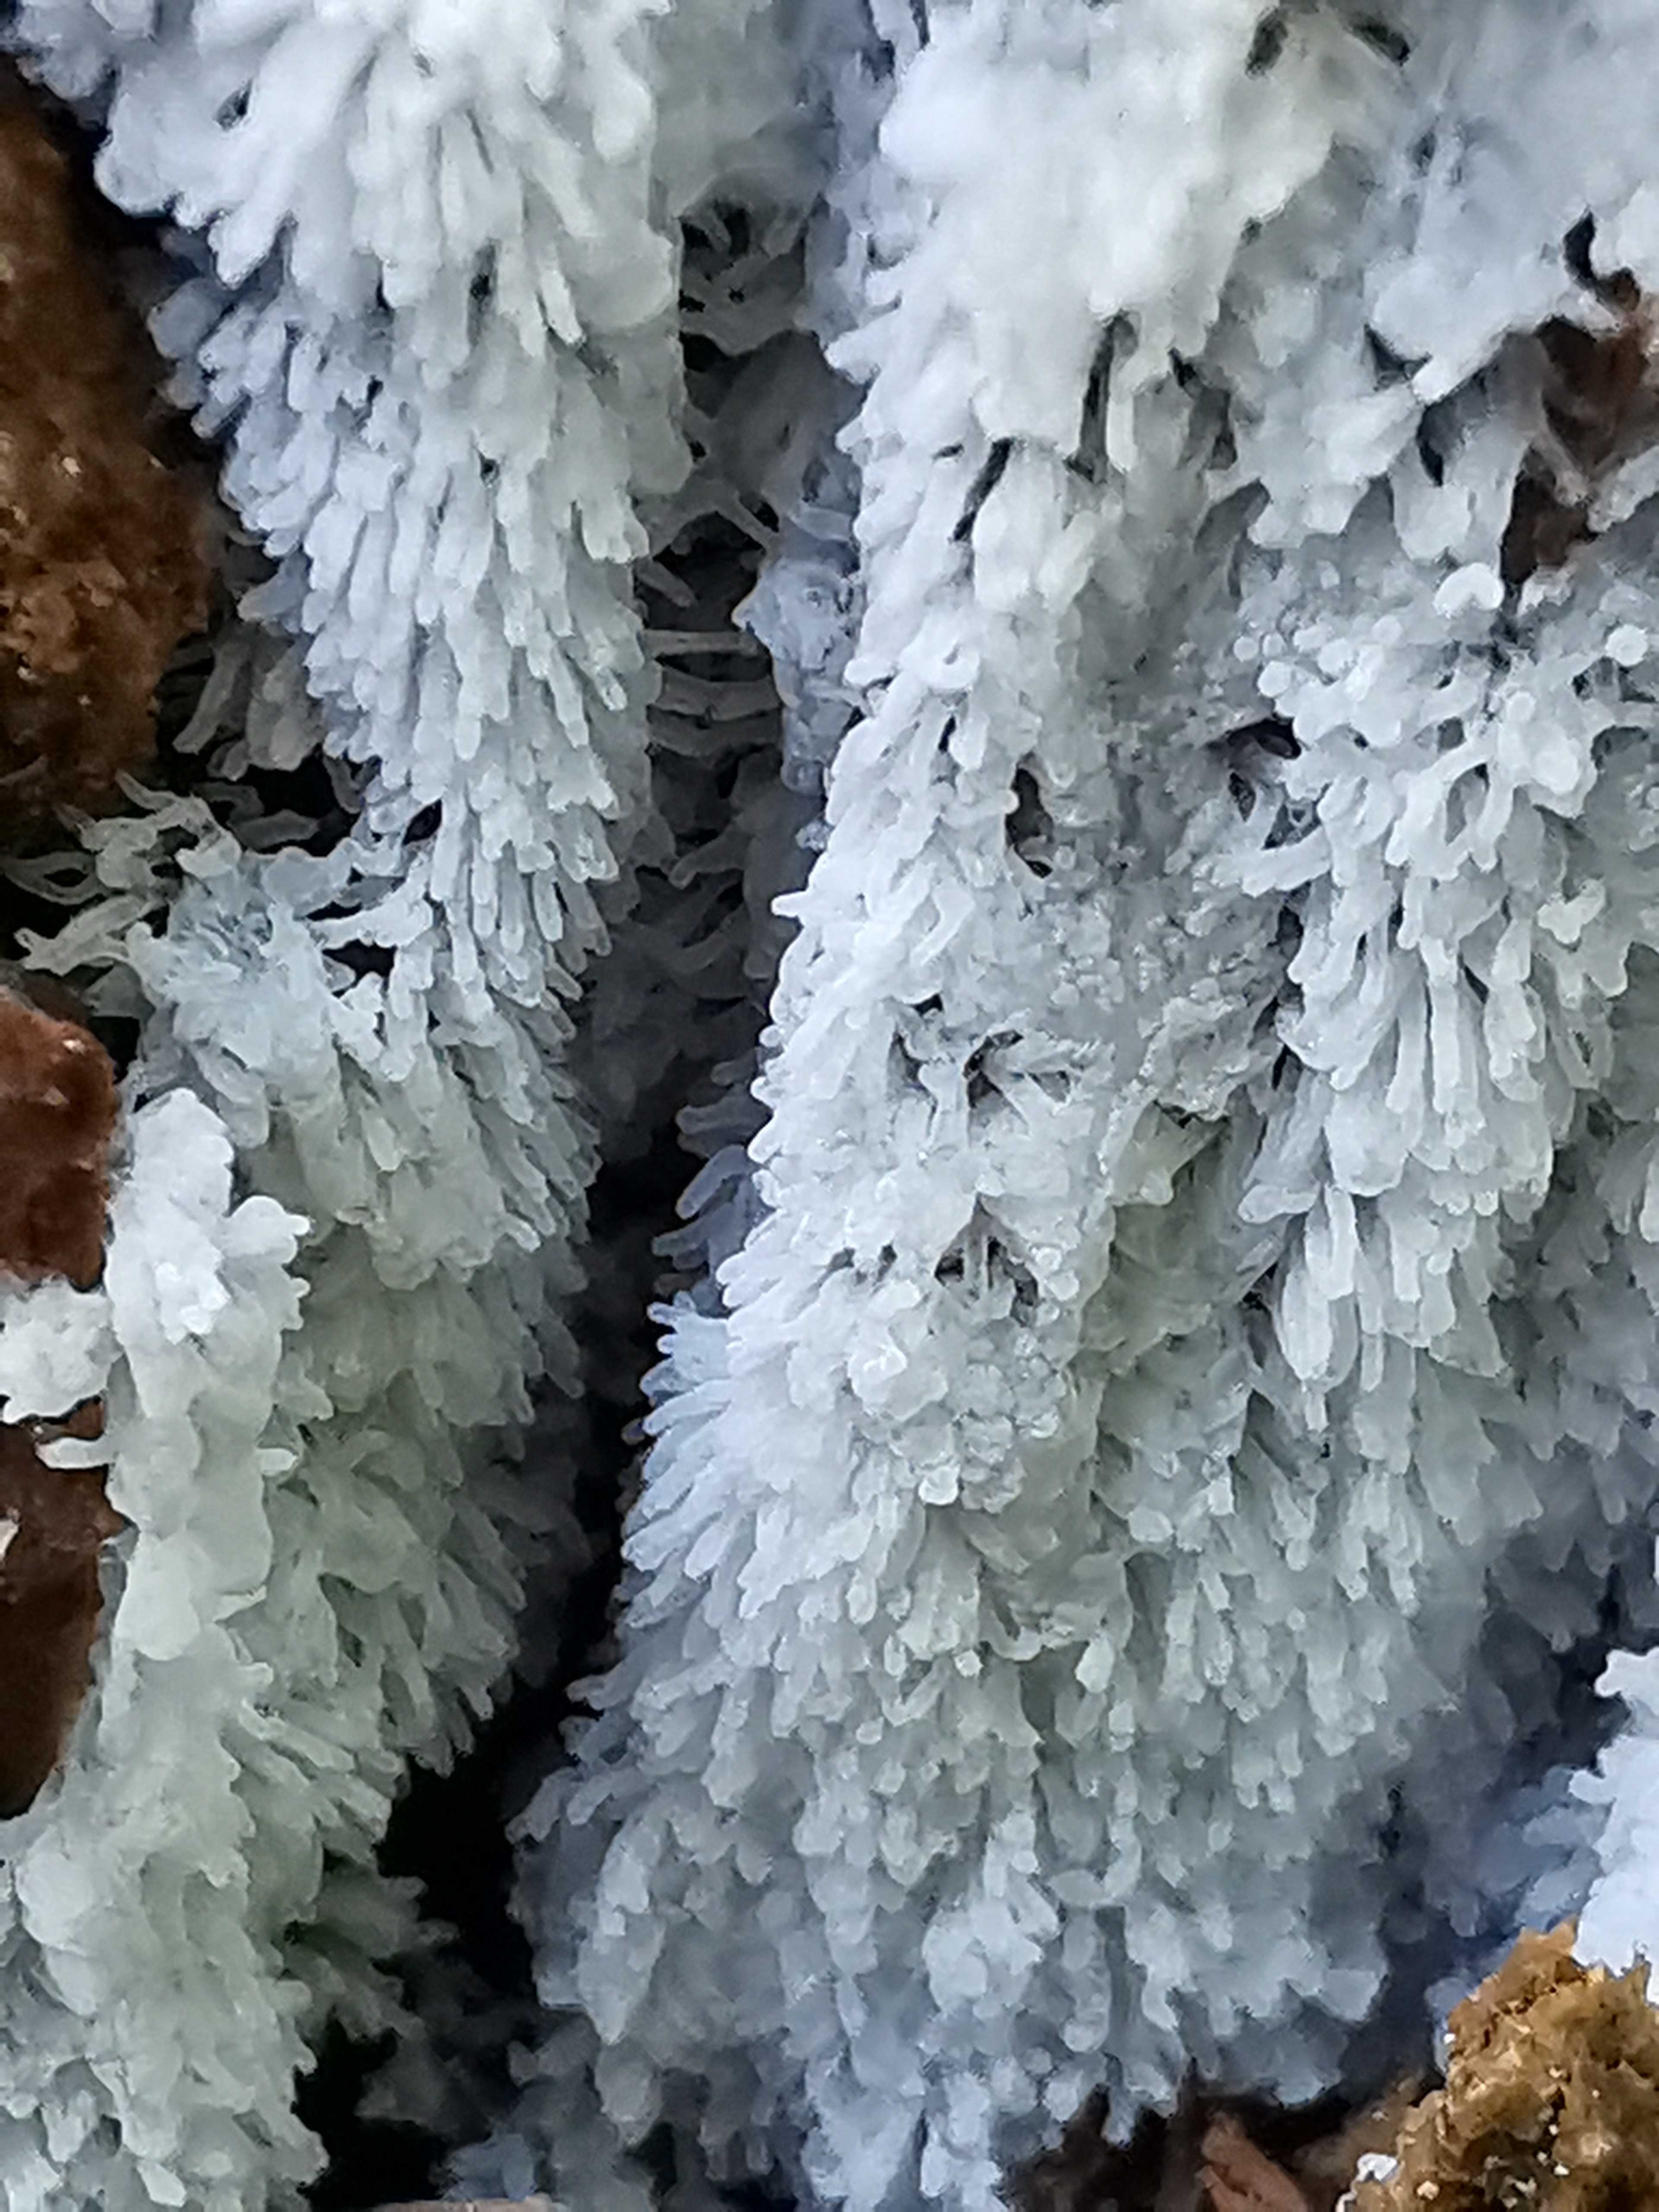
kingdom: Protozoa
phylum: Mycetozoa
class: Protosteliomycetes
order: Ceratiomyxales
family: Ceratiomyxaceae
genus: Ceratiomyxa
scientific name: Ceratiomyxa fruticulosa
